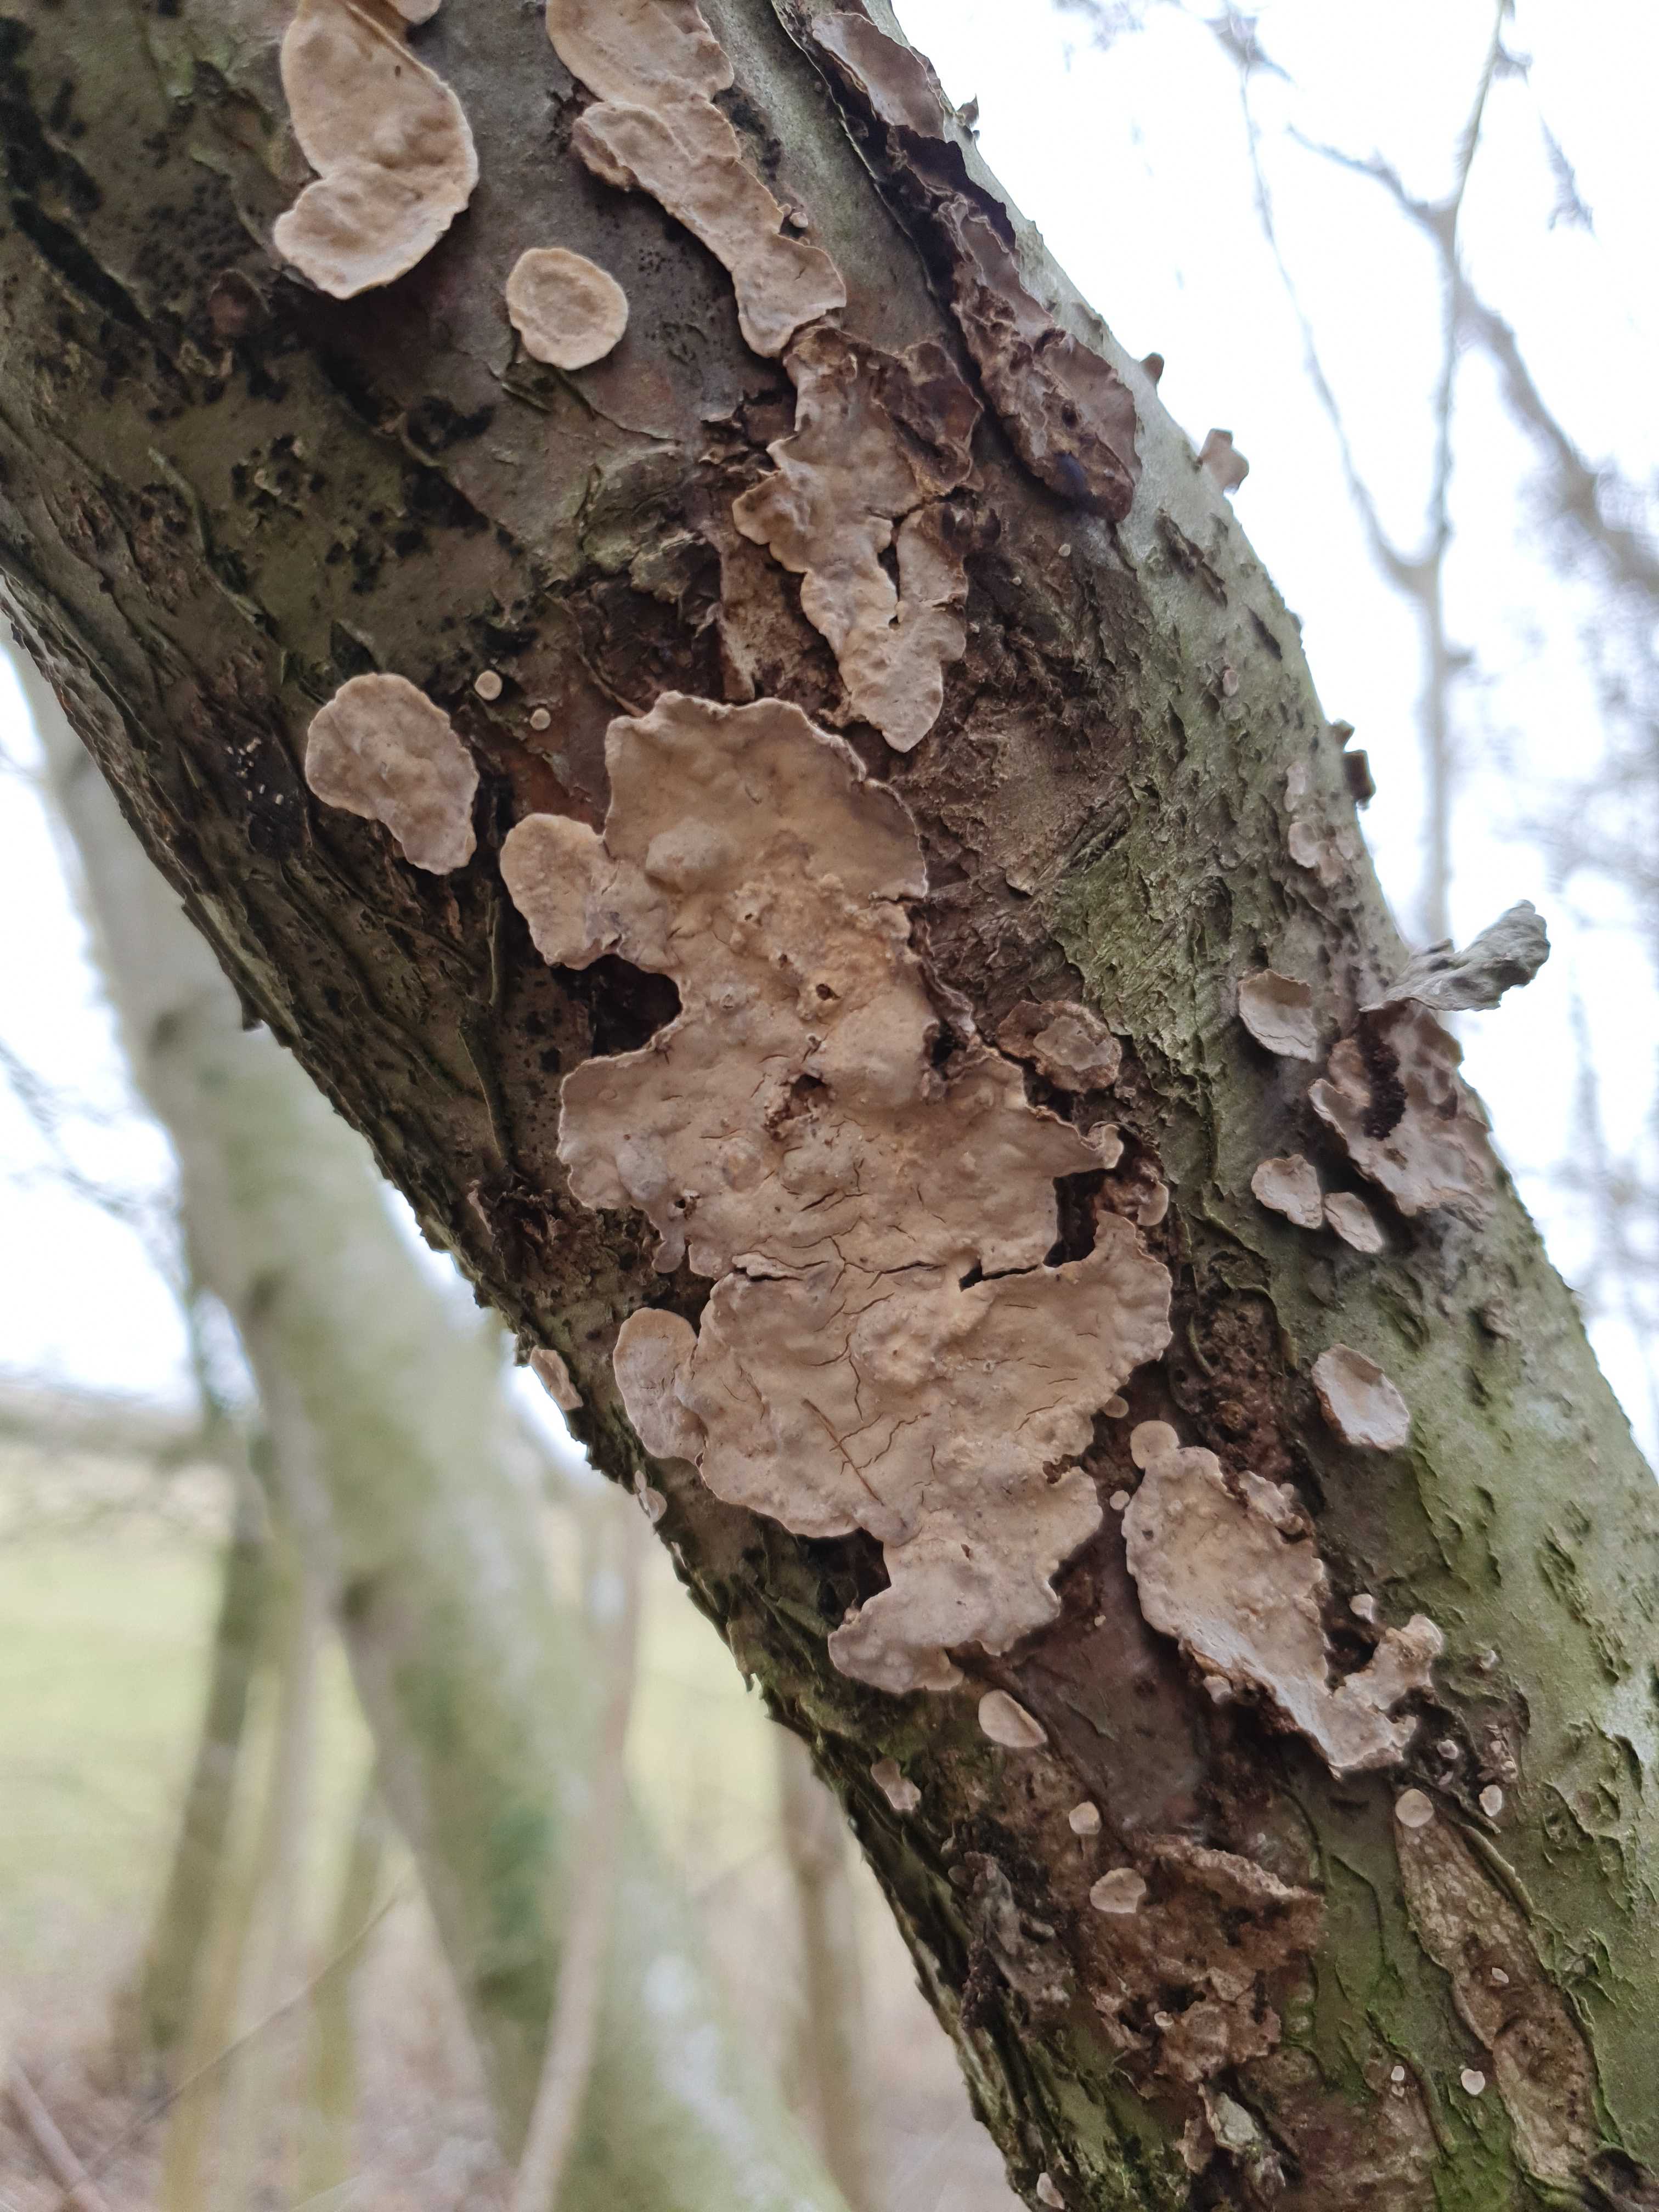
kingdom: Fungi
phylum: Basidiomycota
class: Agaricomycetes
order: Russulales
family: Stereaceae
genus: Stereum
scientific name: Stereum rugosum
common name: rynket lædersvamp
